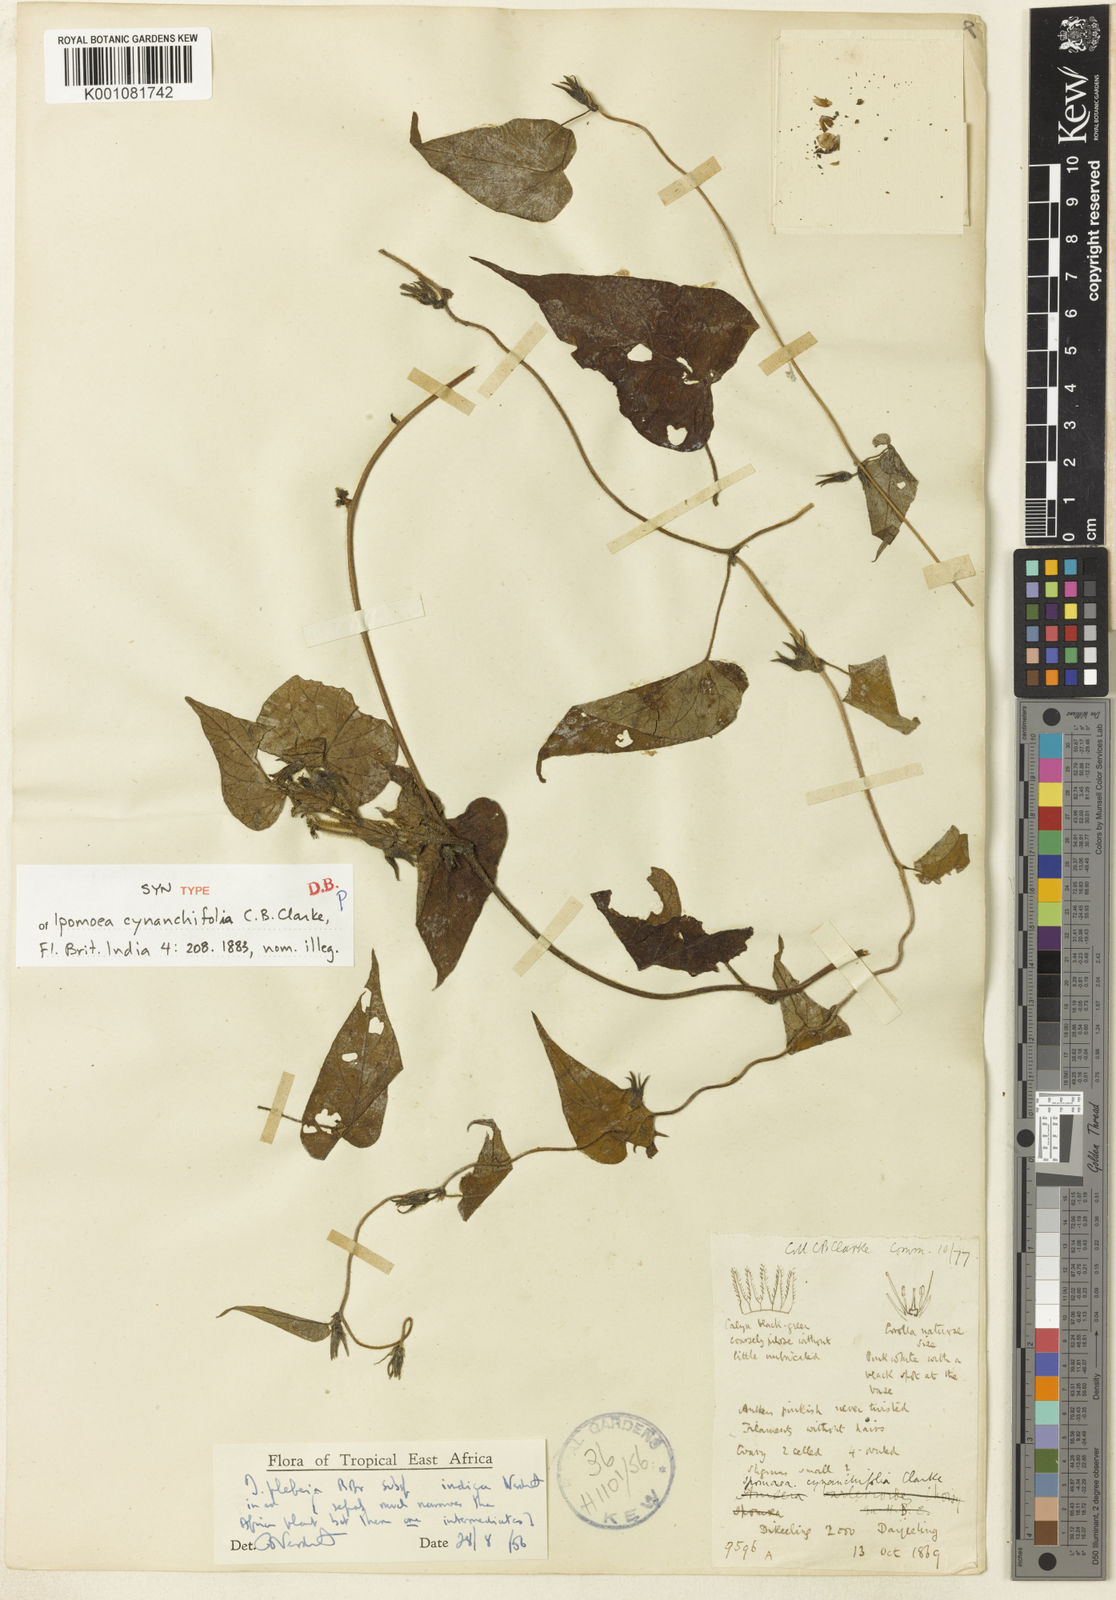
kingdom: Plantae
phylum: Tracheophyta
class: Magnoliopsida
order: Solanales
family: Convolvulaceae
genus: Ipomoea
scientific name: Ipomoea biflora
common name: Bellvine
